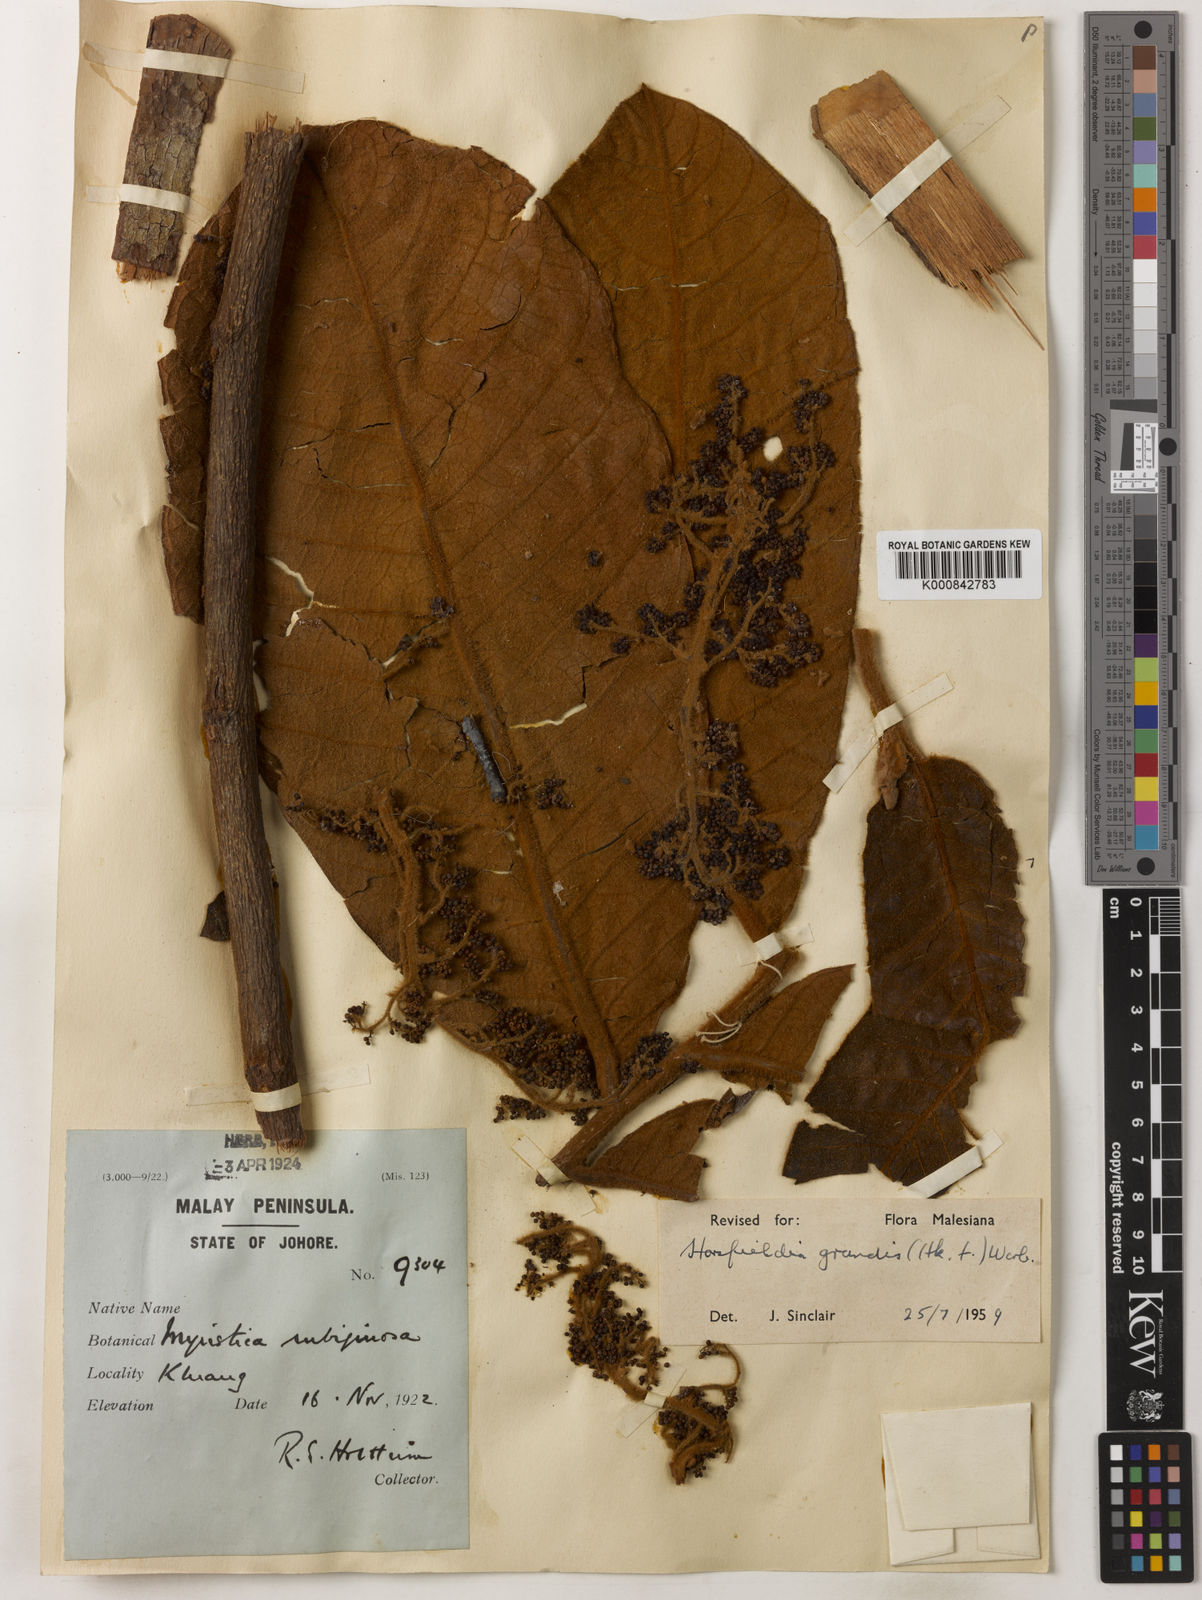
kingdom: Plantae
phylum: Tracheophyta
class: Magnoliopsida
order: Magnoliales
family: Myristicaceae
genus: Horsfieldia
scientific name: Horsfieldia grandis
